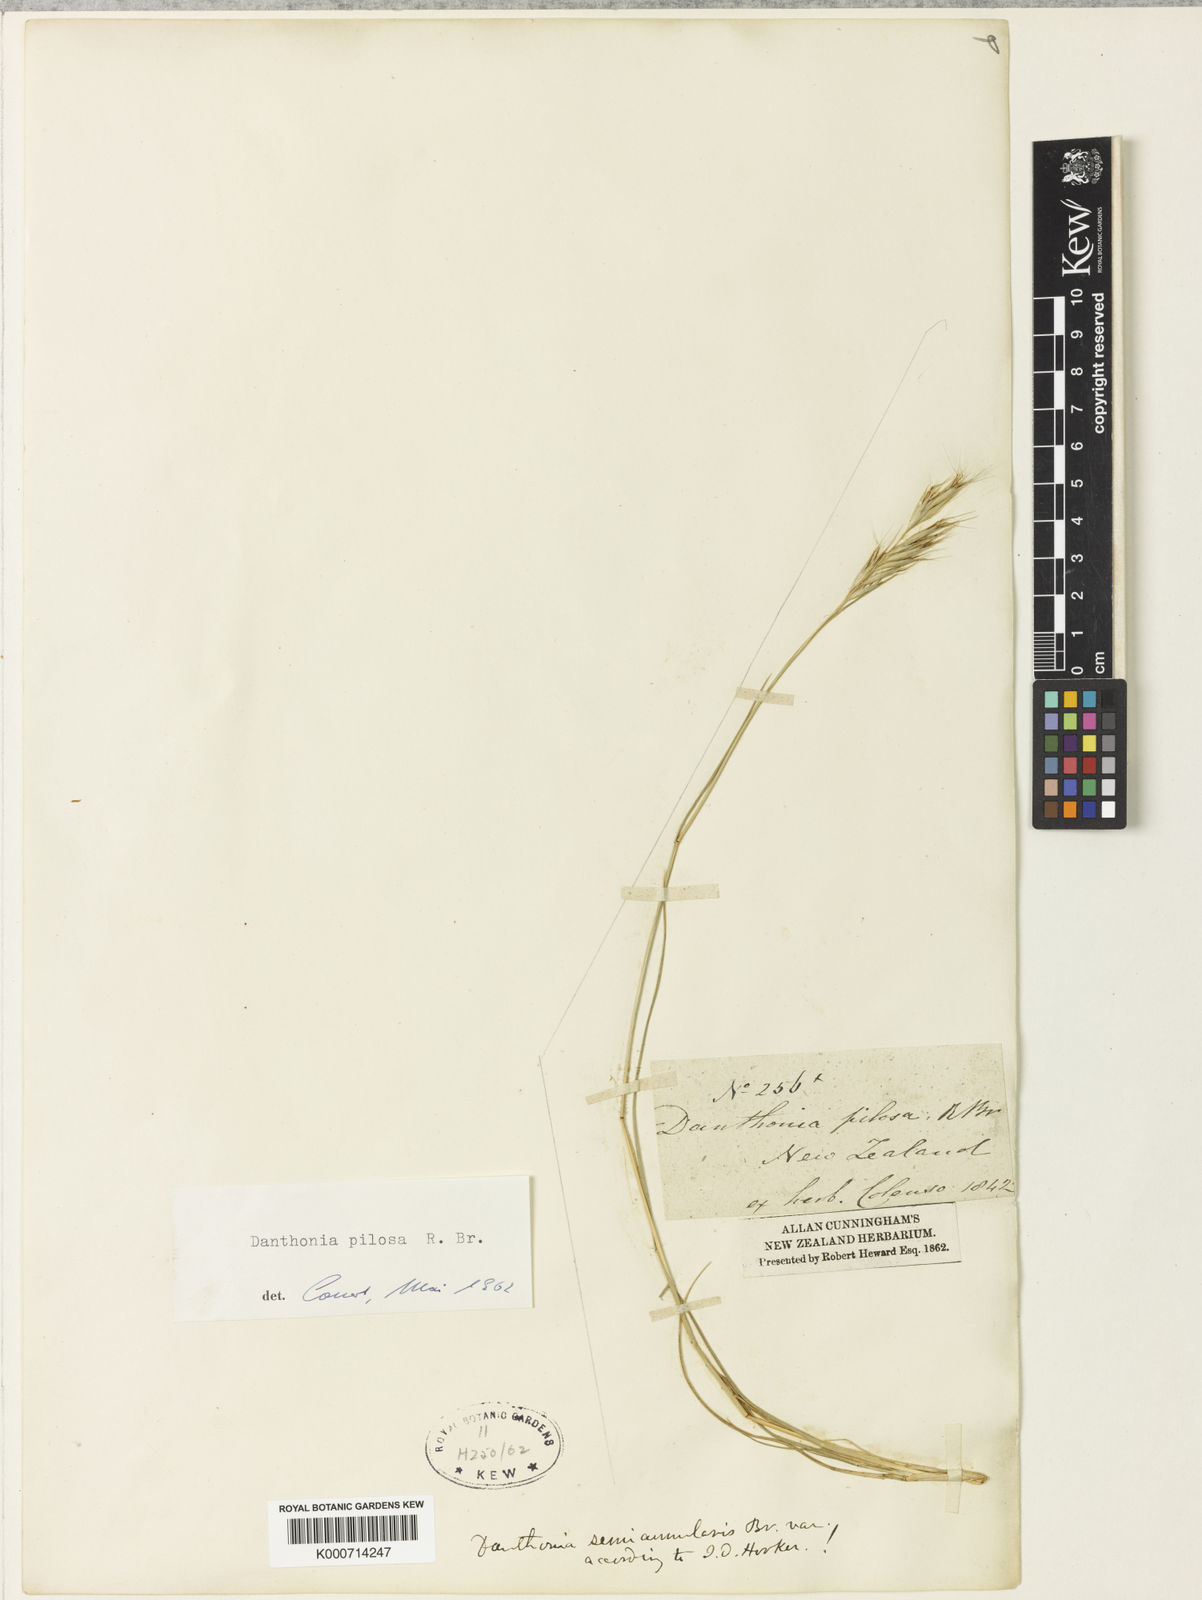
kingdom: Plantae
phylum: Tracheophyta
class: Liliopsida
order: Poales
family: Poaceae
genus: Rytidosperma
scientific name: Rytidosperma pilosum
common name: Hairy wallaby grass
